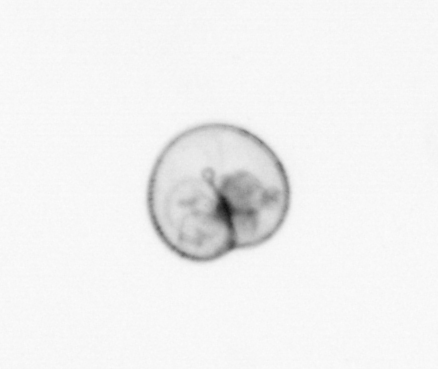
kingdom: Chromista
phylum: Myzozoa
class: Dinophyceae
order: Noctilucales
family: Noctilucaceae
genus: Noctiluca
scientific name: Noctiluca scintillans
